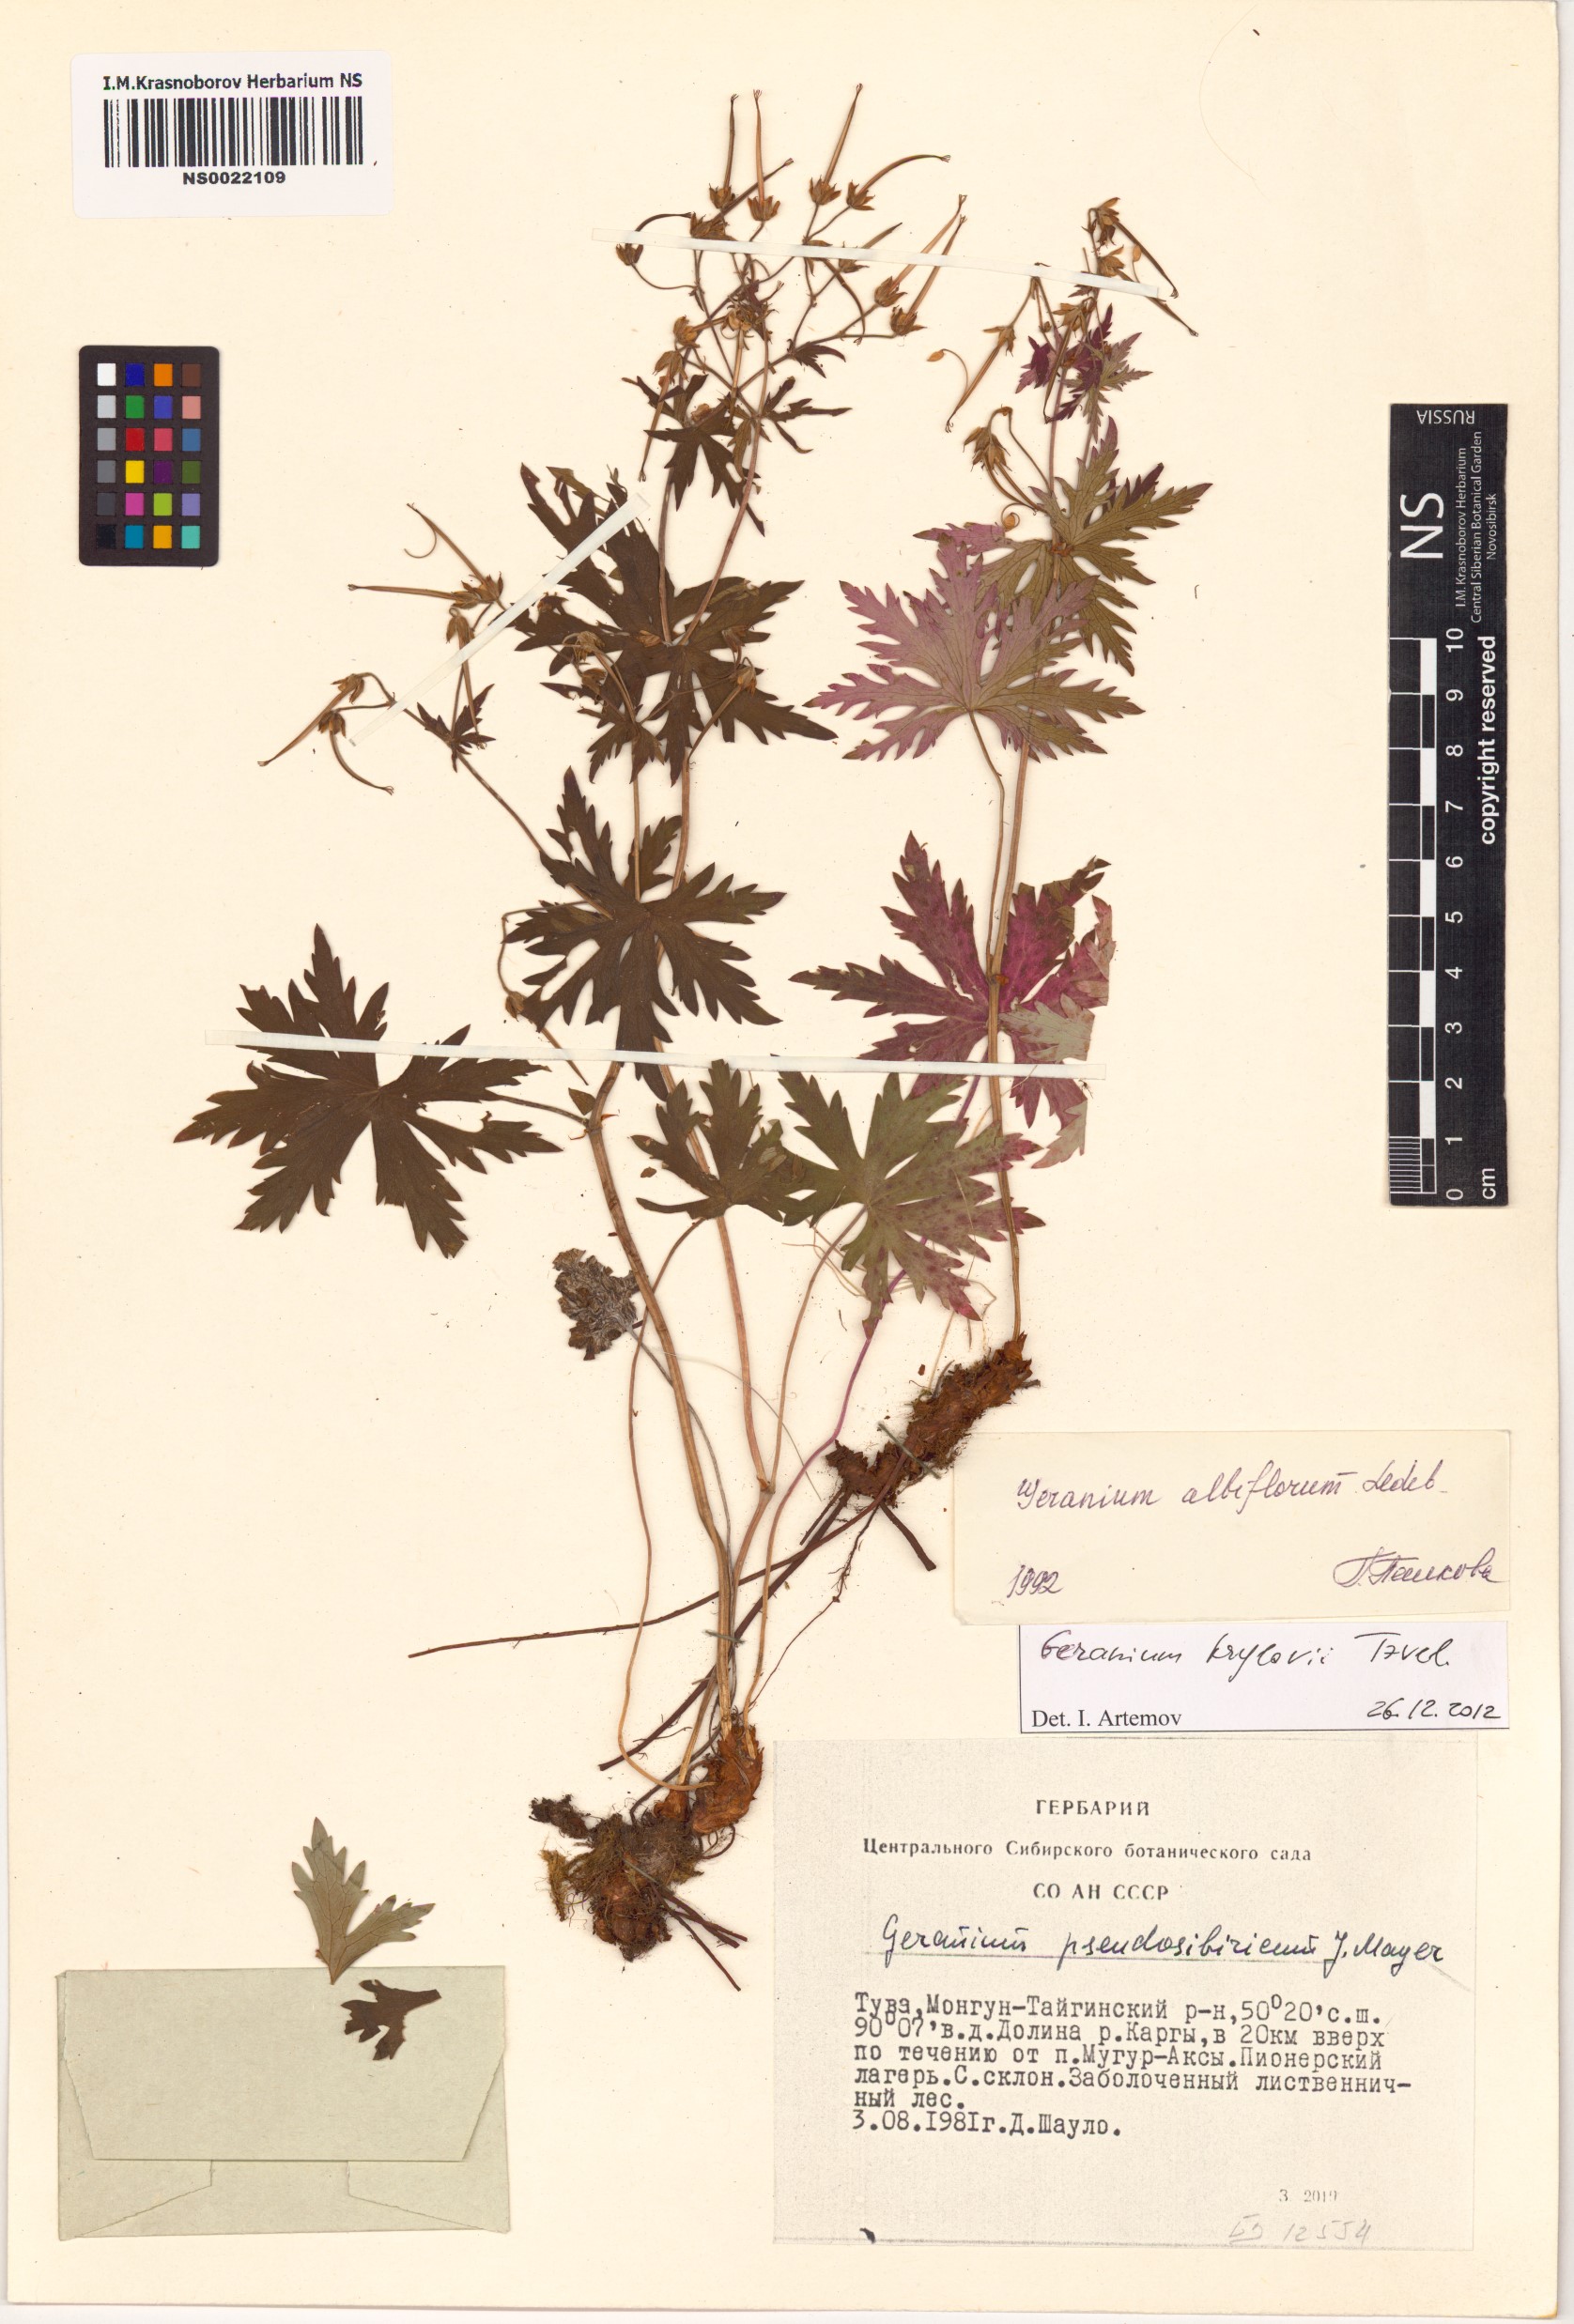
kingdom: Plantae
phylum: Tracheophyta
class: Magnoliopsida
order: Geraniales
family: Geraniaceae
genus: Geranium
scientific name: Geranium sylvaticum
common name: Wood crane's-bill
